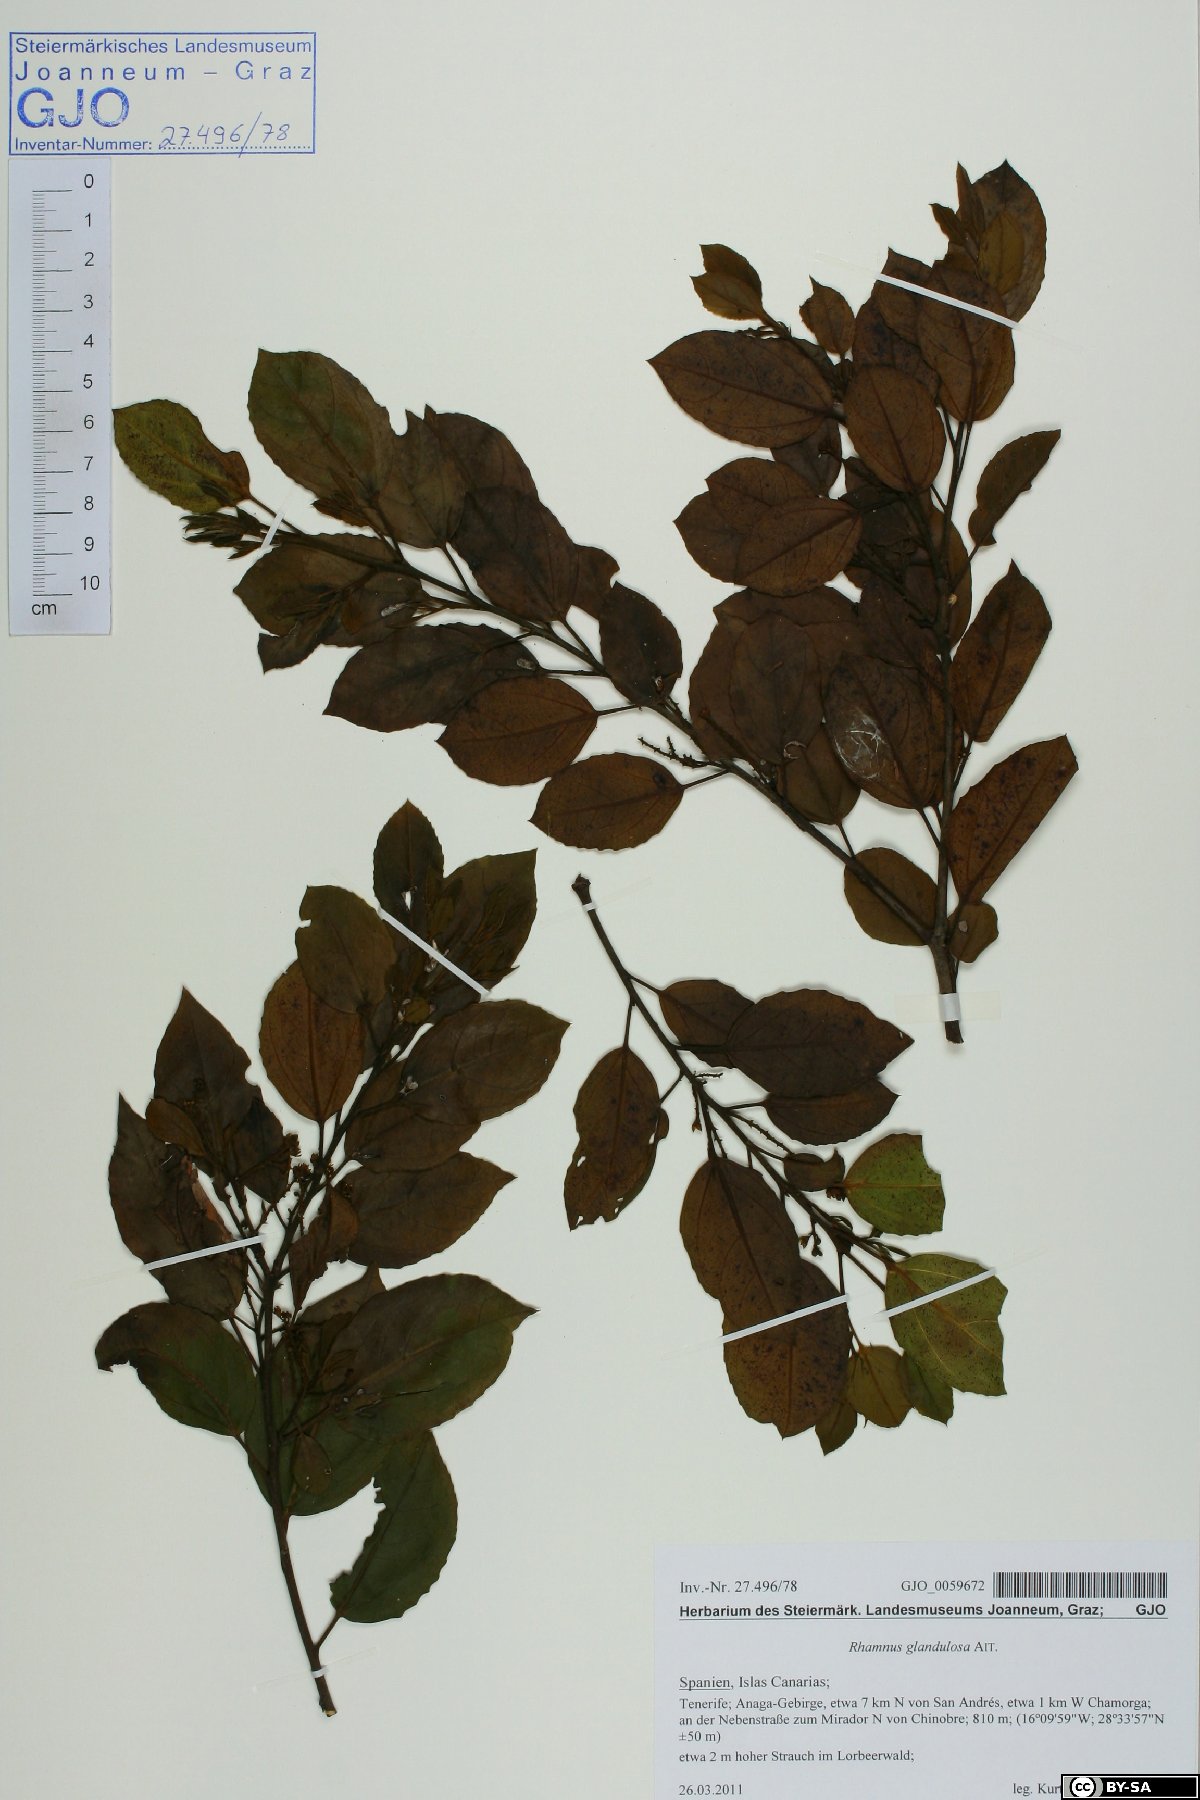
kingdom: Plantae
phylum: Tracheophyta
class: Magnoliopsida
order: Rosales
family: Rhamnaceae
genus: Rhamnus
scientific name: Rhamnus glandulosa
